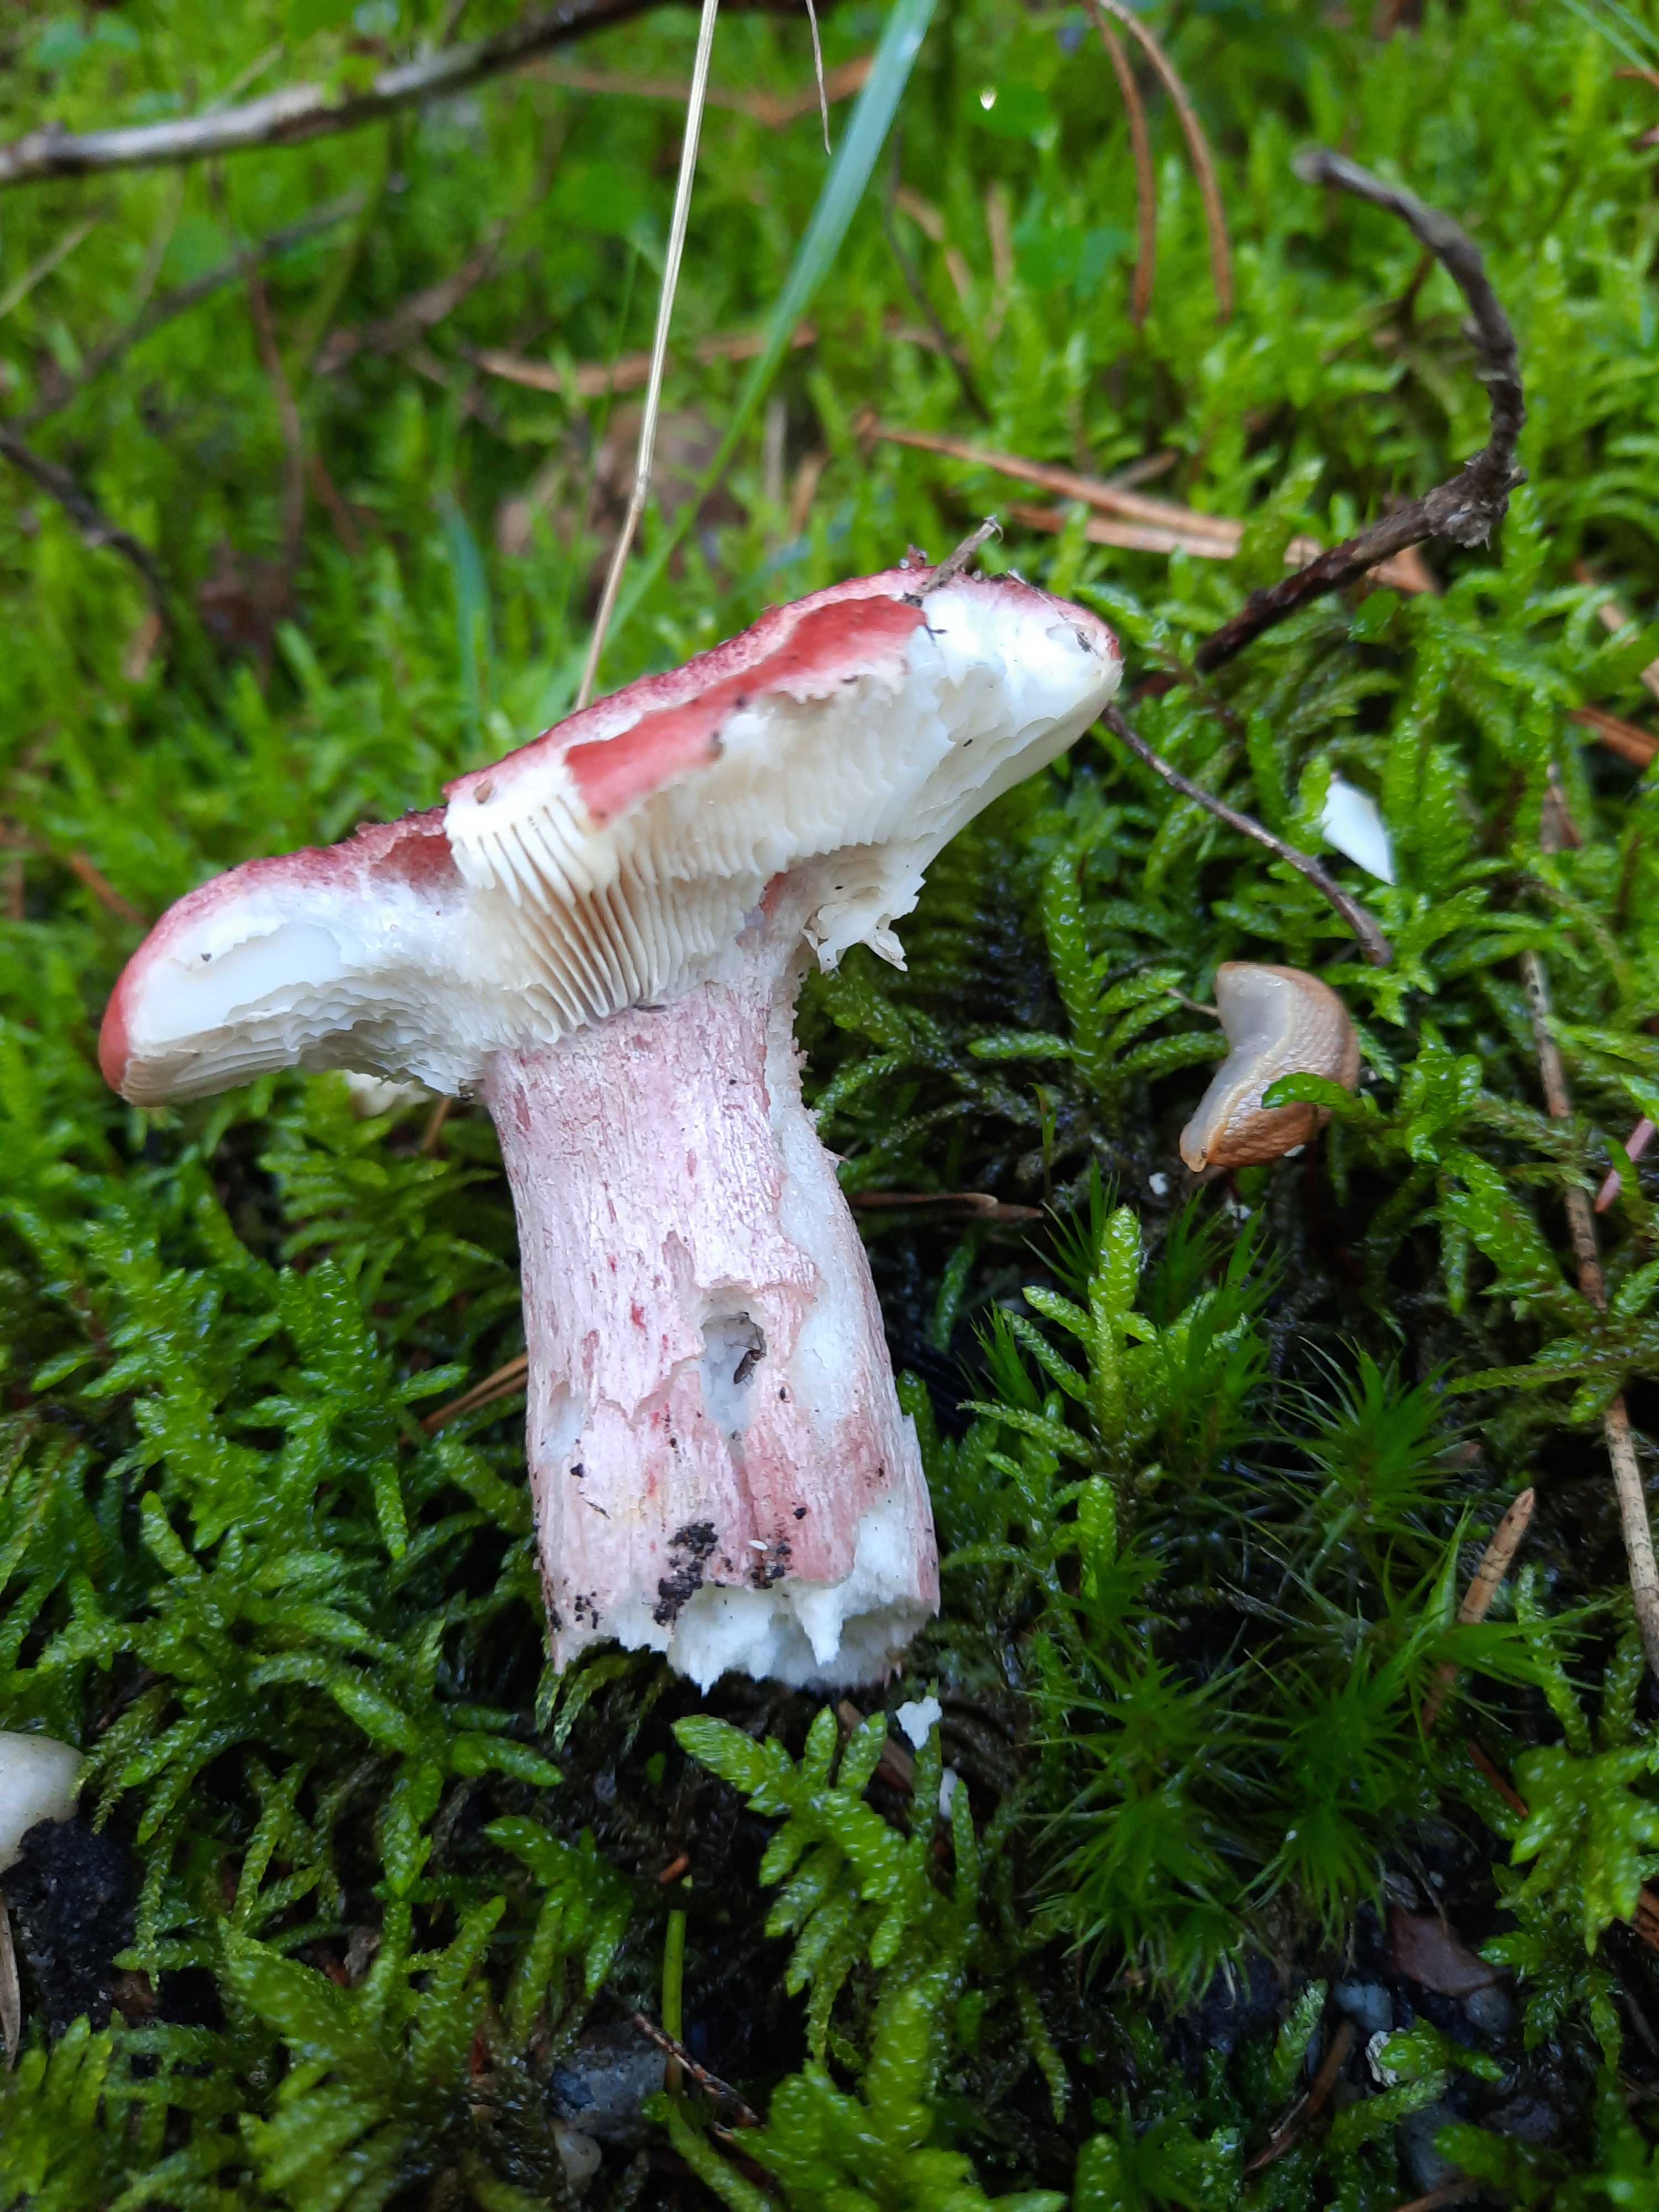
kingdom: Fungi
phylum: Basidiomycota
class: Agaricomycetes
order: Russulales
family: Russulaceae
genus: Russula
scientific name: Russula sanguinea
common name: blodrød skørhat
